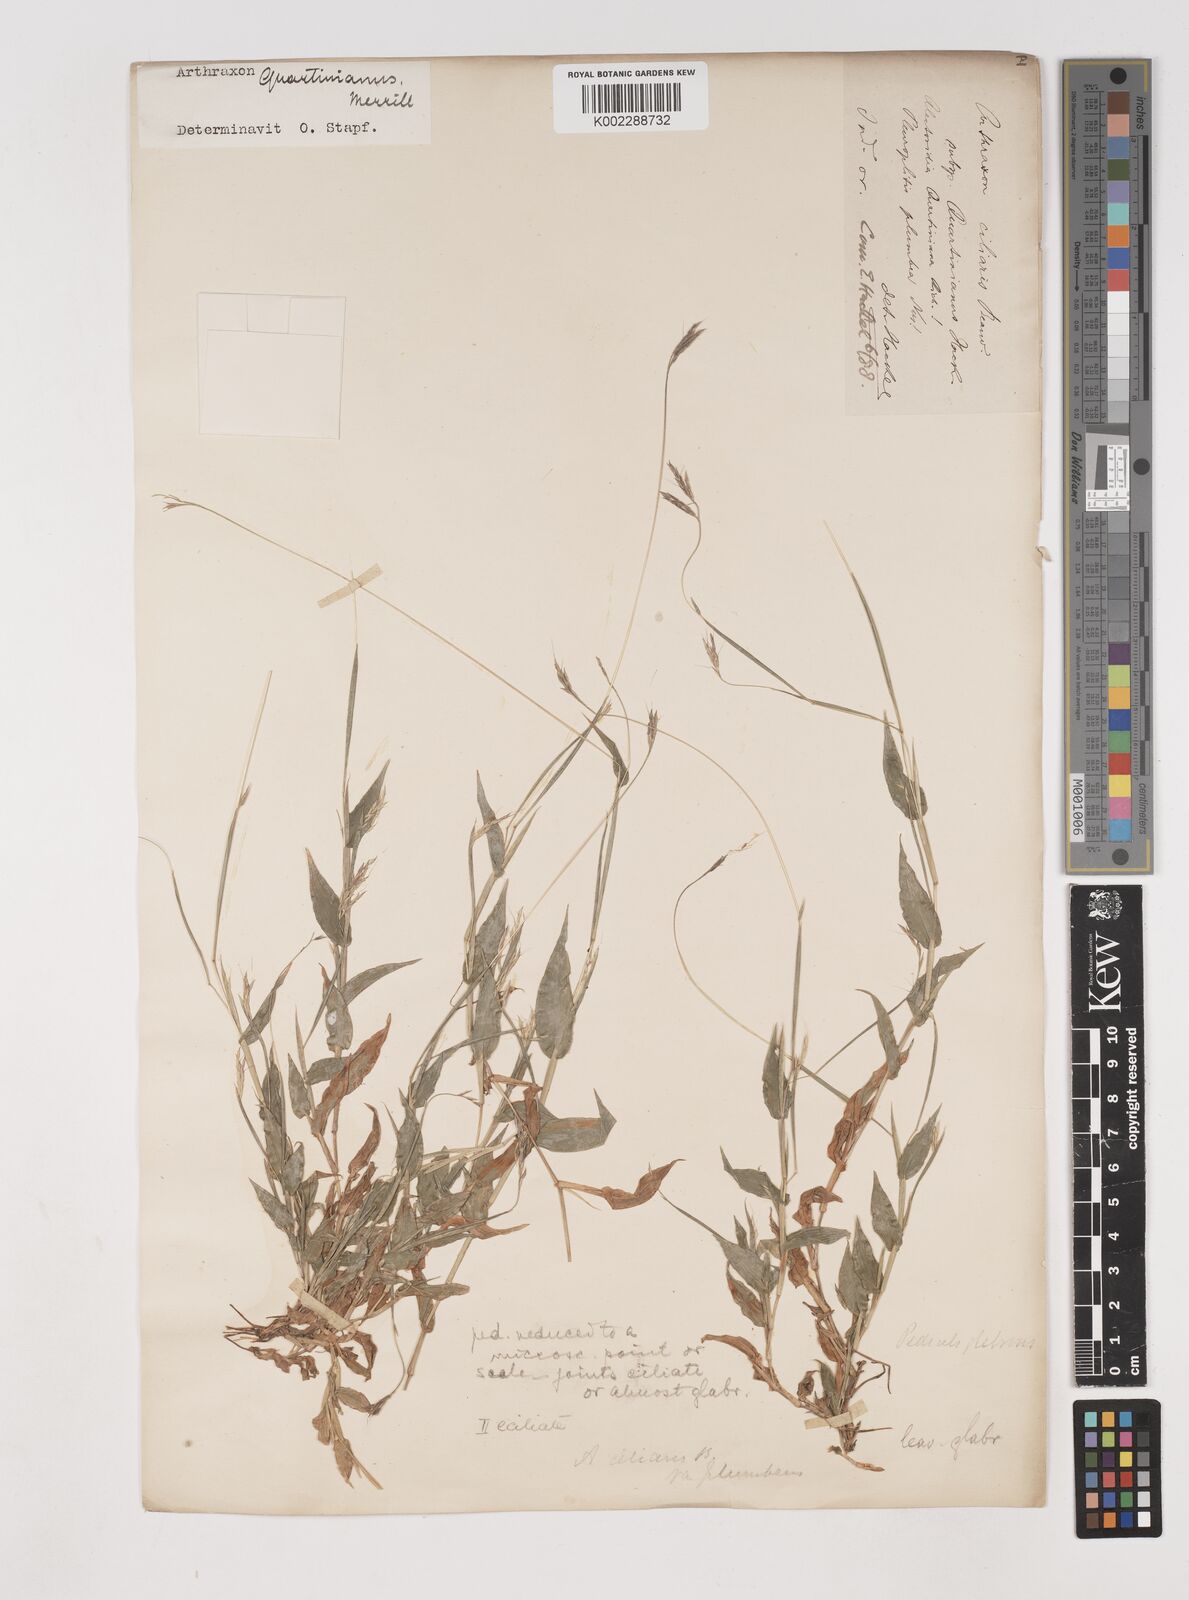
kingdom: Plantae
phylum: Tracheophyta
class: Liliopsida
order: Poales
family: Poaceae
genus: Arthraxon
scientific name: Arthraxon hispidus
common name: Small carpgrass
